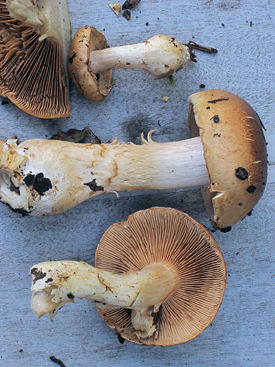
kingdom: Fungi
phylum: Basidiomycota
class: Agaricomycetes
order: Agaricales
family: Cortinariaceae
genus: Phlegmacium
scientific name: Phlegmacium cliduchus
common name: majs-slørhat
